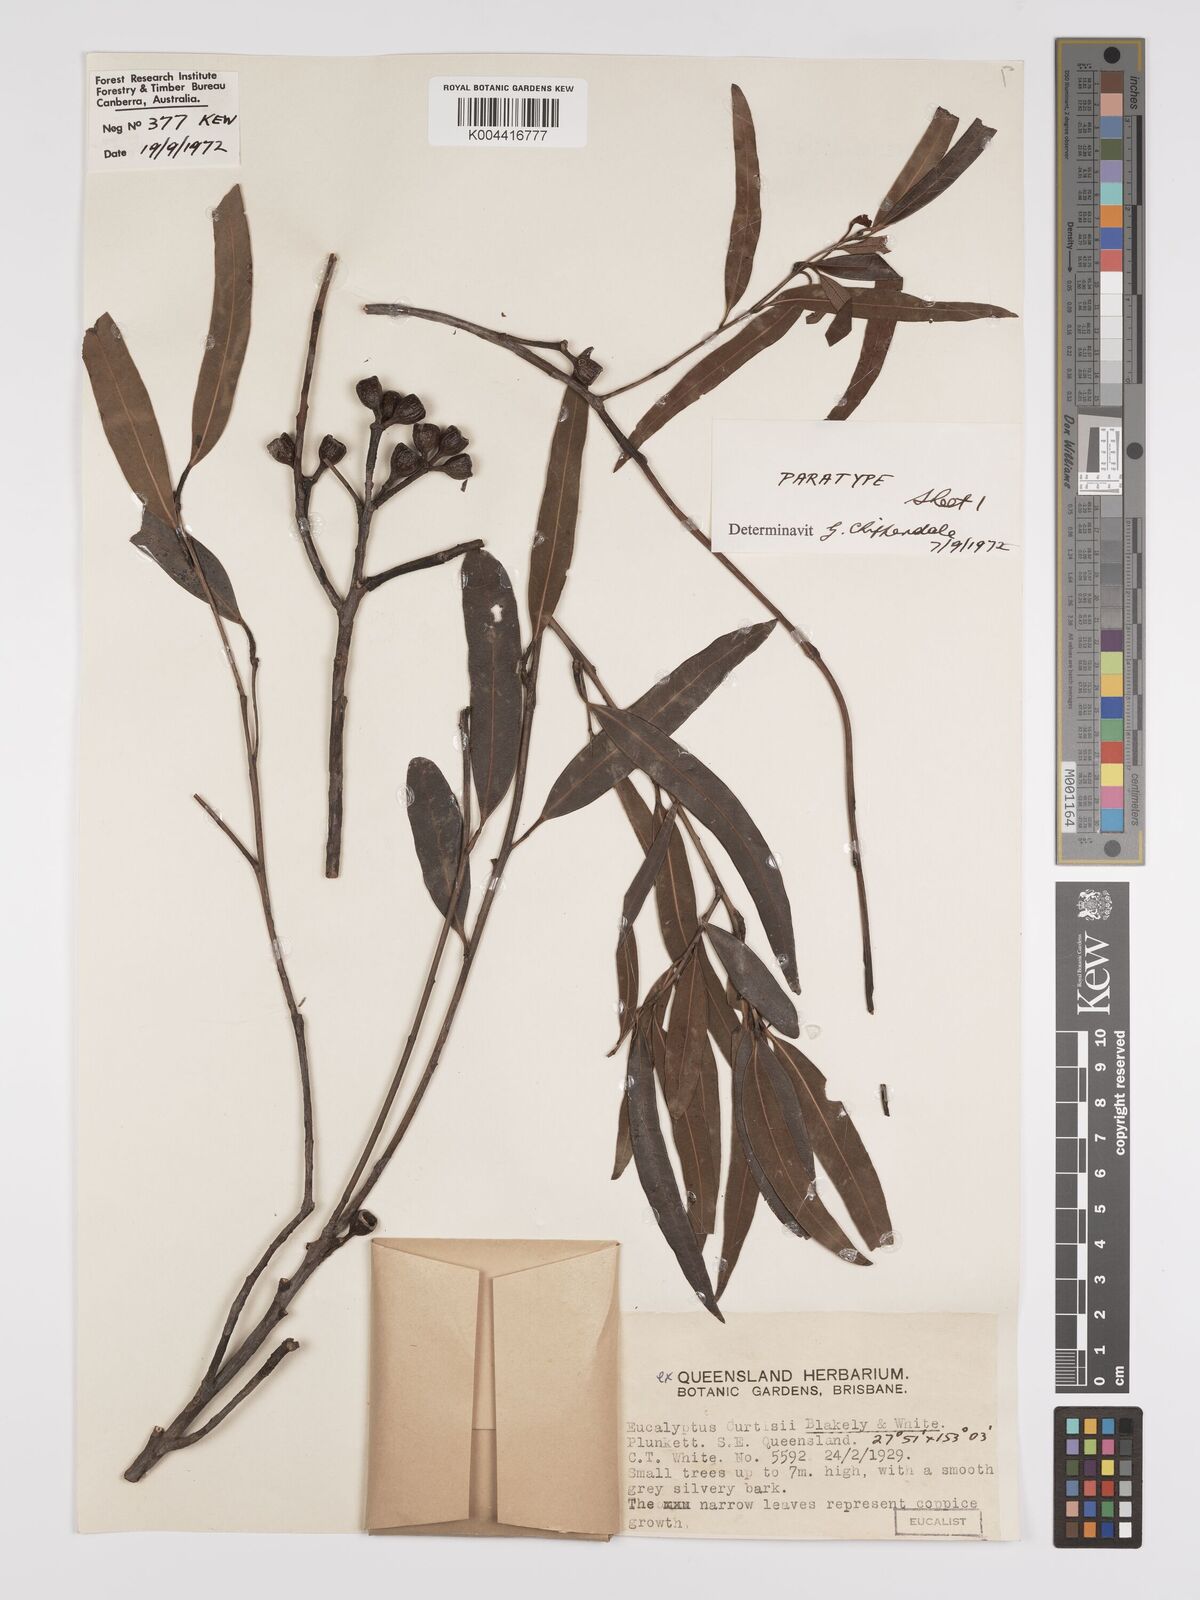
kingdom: Plantae
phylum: Tracheophyta
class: Magnoliopsida
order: Myrtales
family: Myrtaceae
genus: Eucalyptus
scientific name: Eucalyptus curtisii
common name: Plunkett mallee
